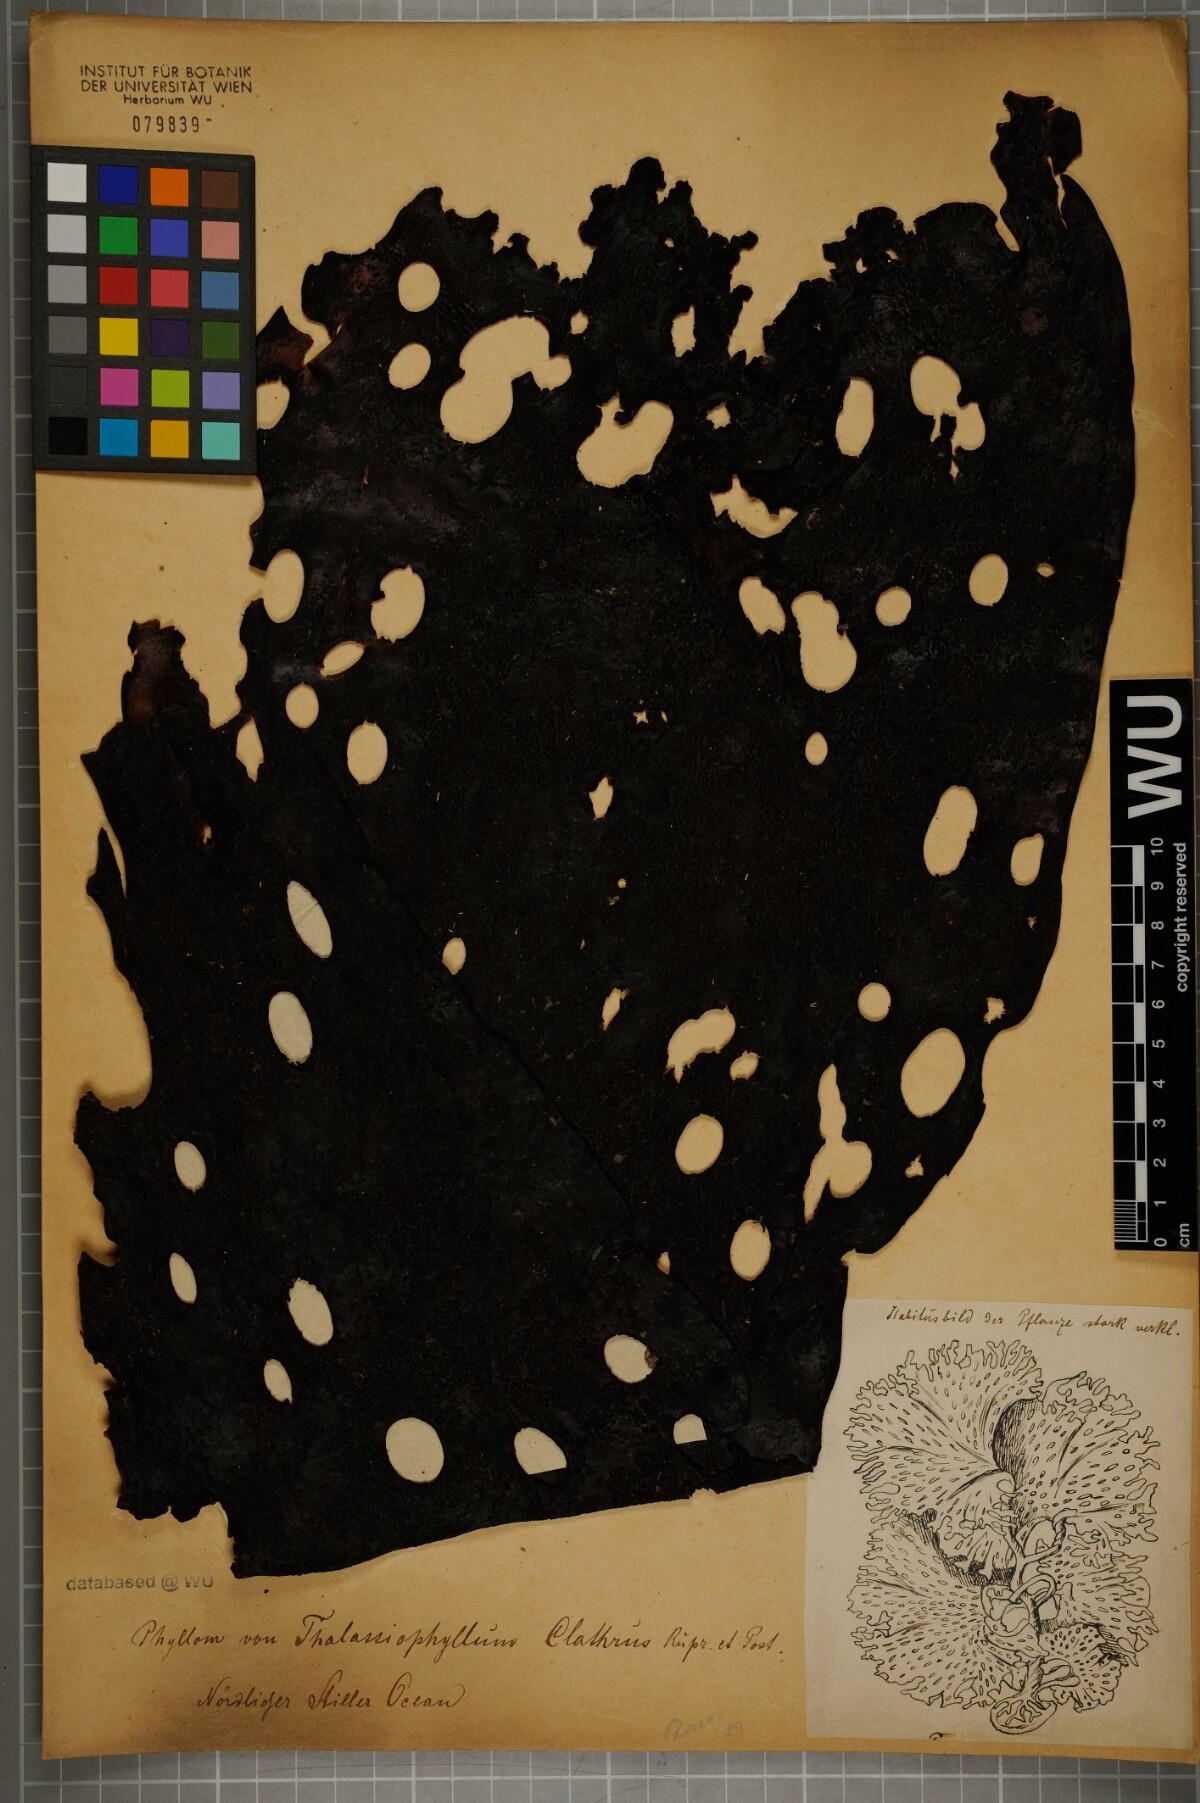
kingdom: Chromista
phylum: Ochrophyta
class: Phaeophyceae
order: Laminariales
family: Agaraceae
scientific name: Agaraceae
